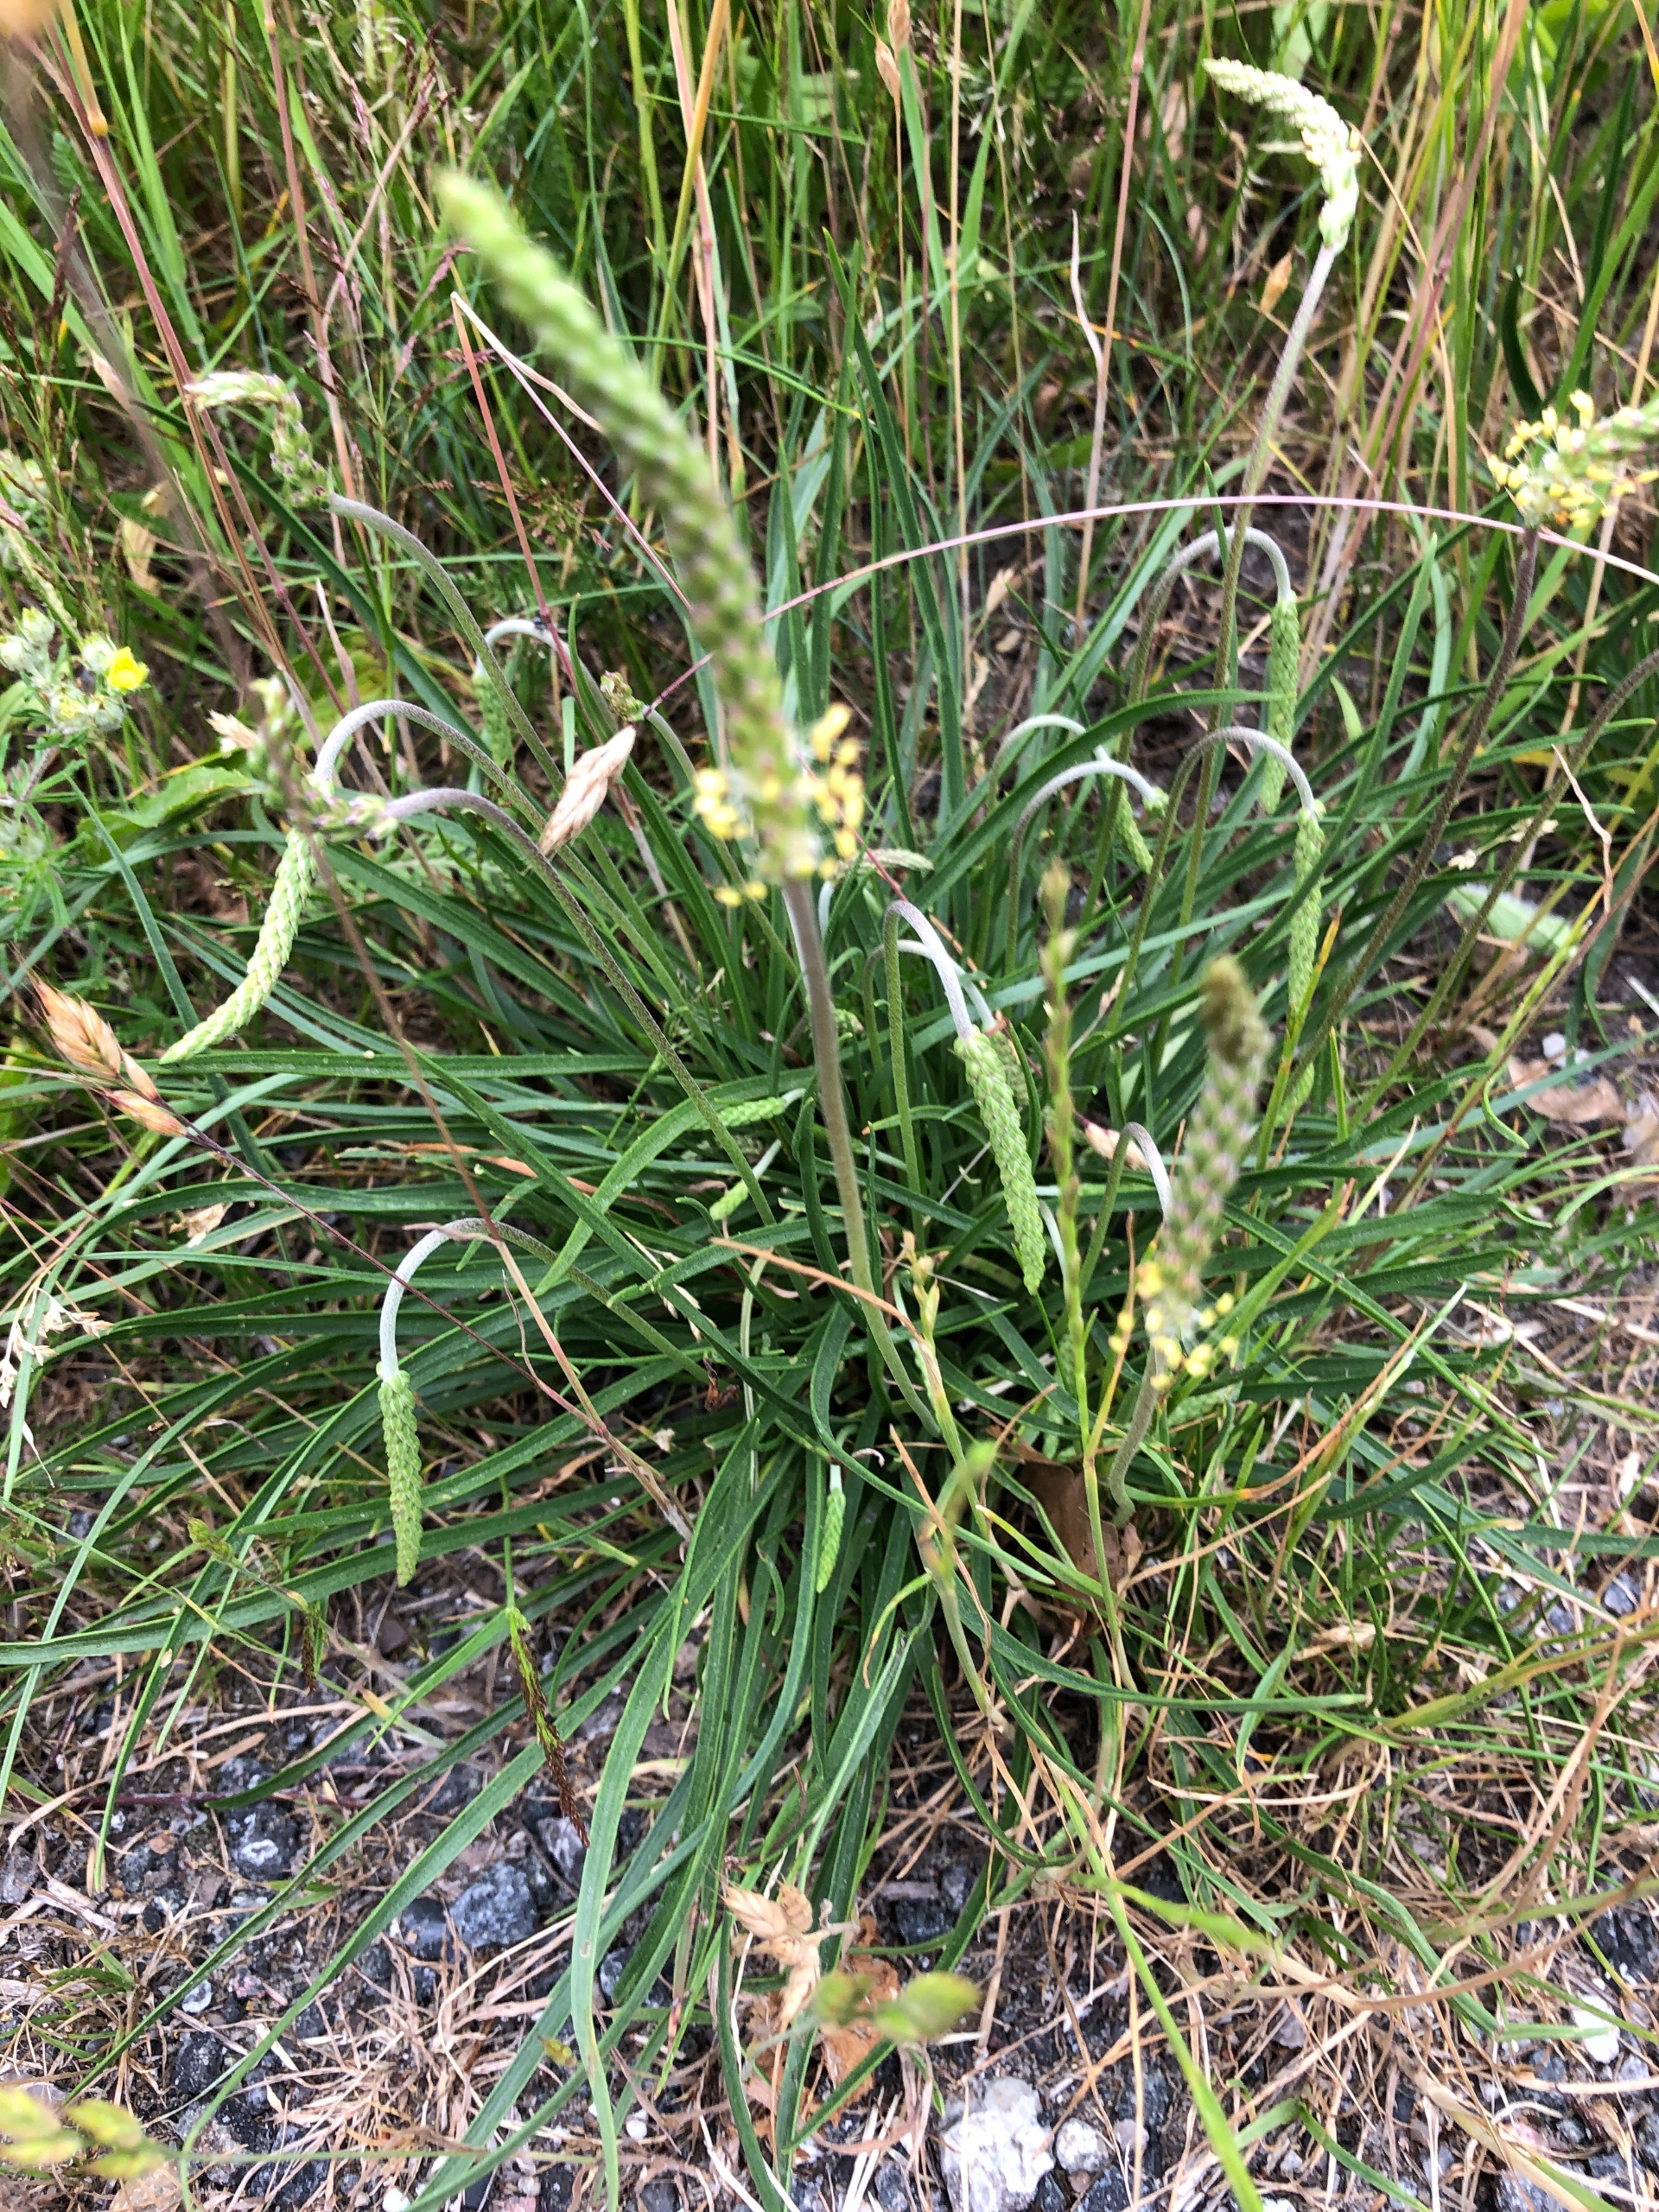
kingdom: Plantae
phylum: Tracheophyta
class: Magnoliopsida
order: Lamiales
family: Plantaginaceae
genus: Plantago
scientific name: Plantago maritima
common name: Strand-vejbred
